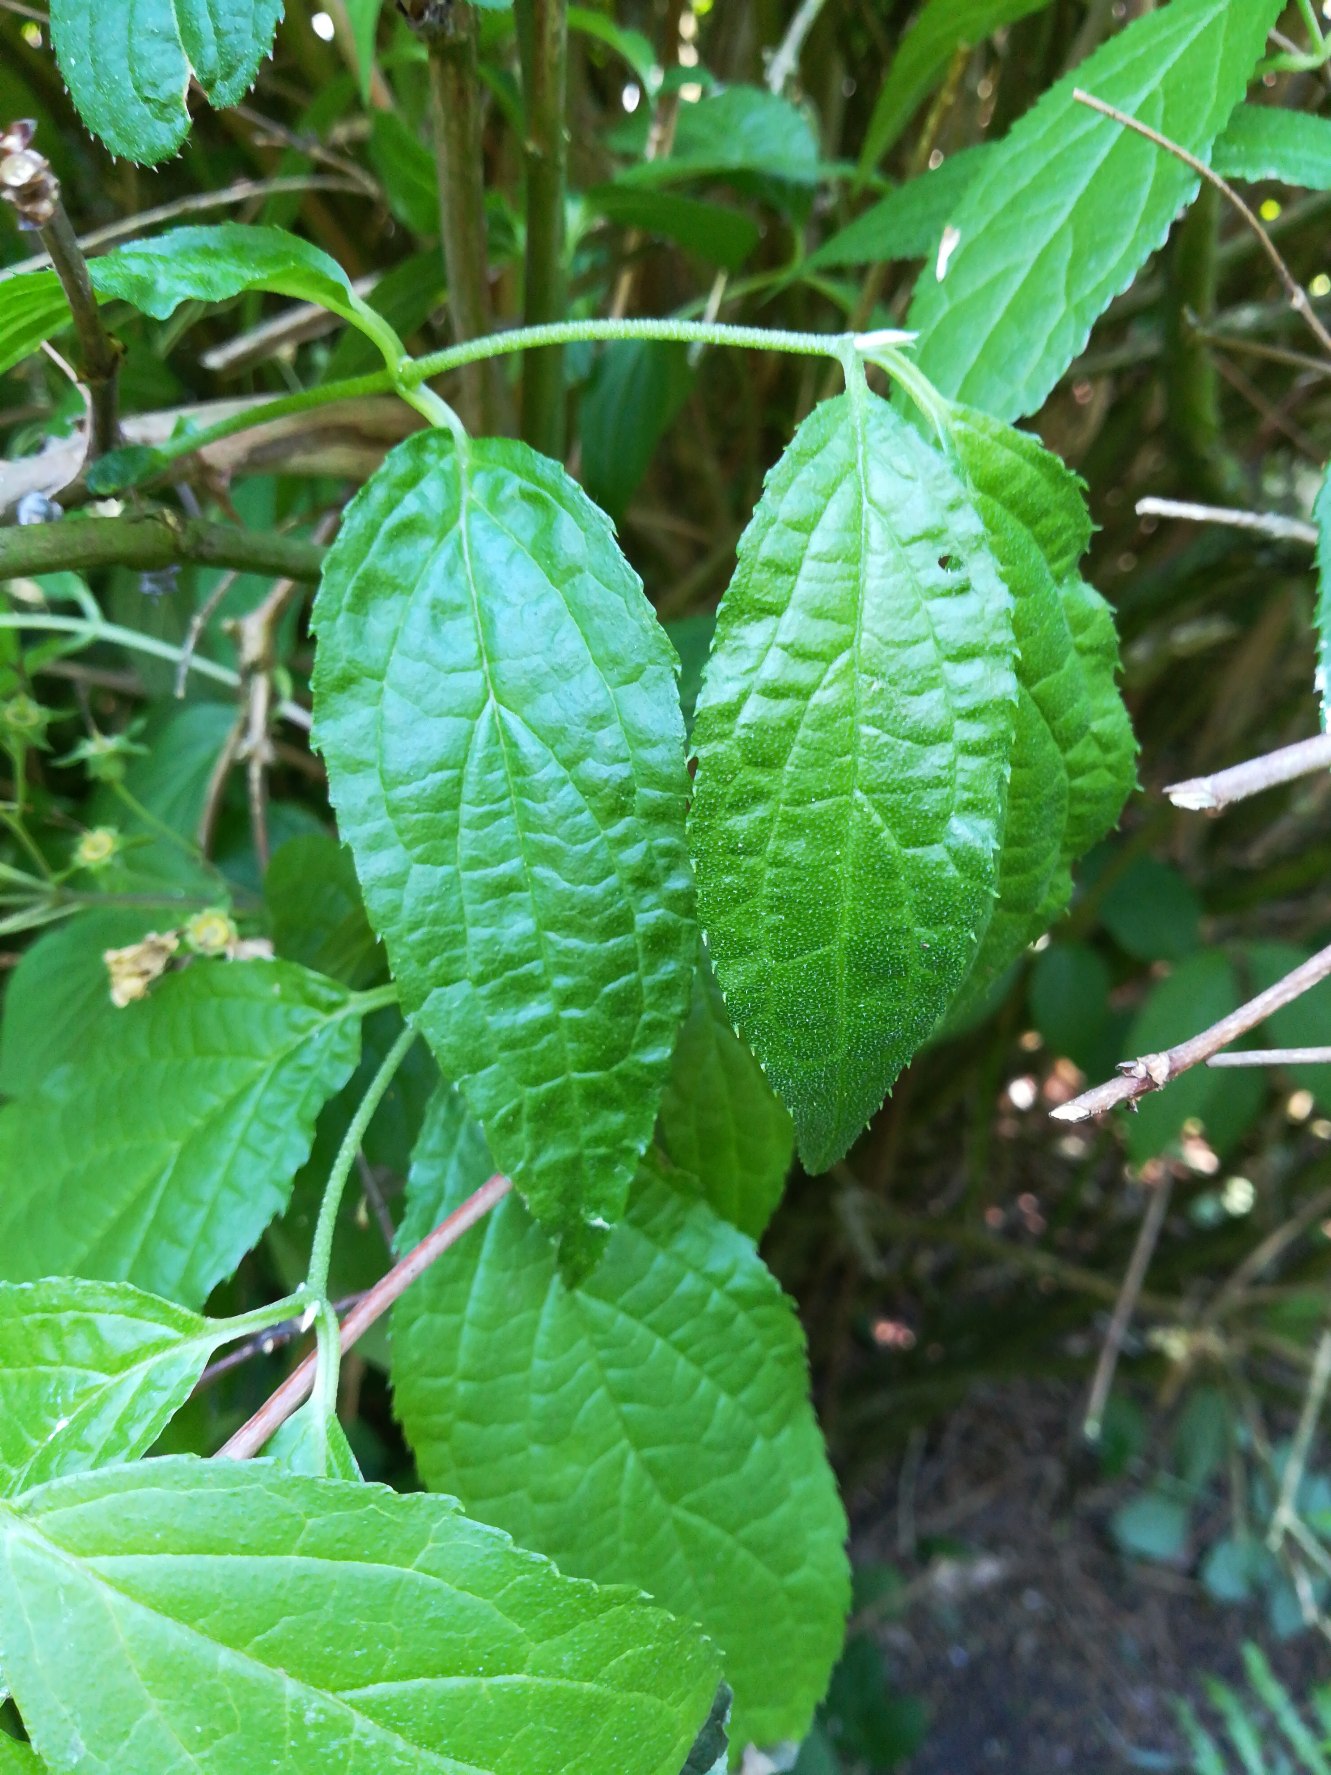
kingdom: Plantae
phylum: Tracheophyta
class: Magnoliopsida
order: Ericales
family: Balsaminaceae
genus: Impatiens
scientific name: Impatiens parviflora
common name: Småblomstret balsamin
